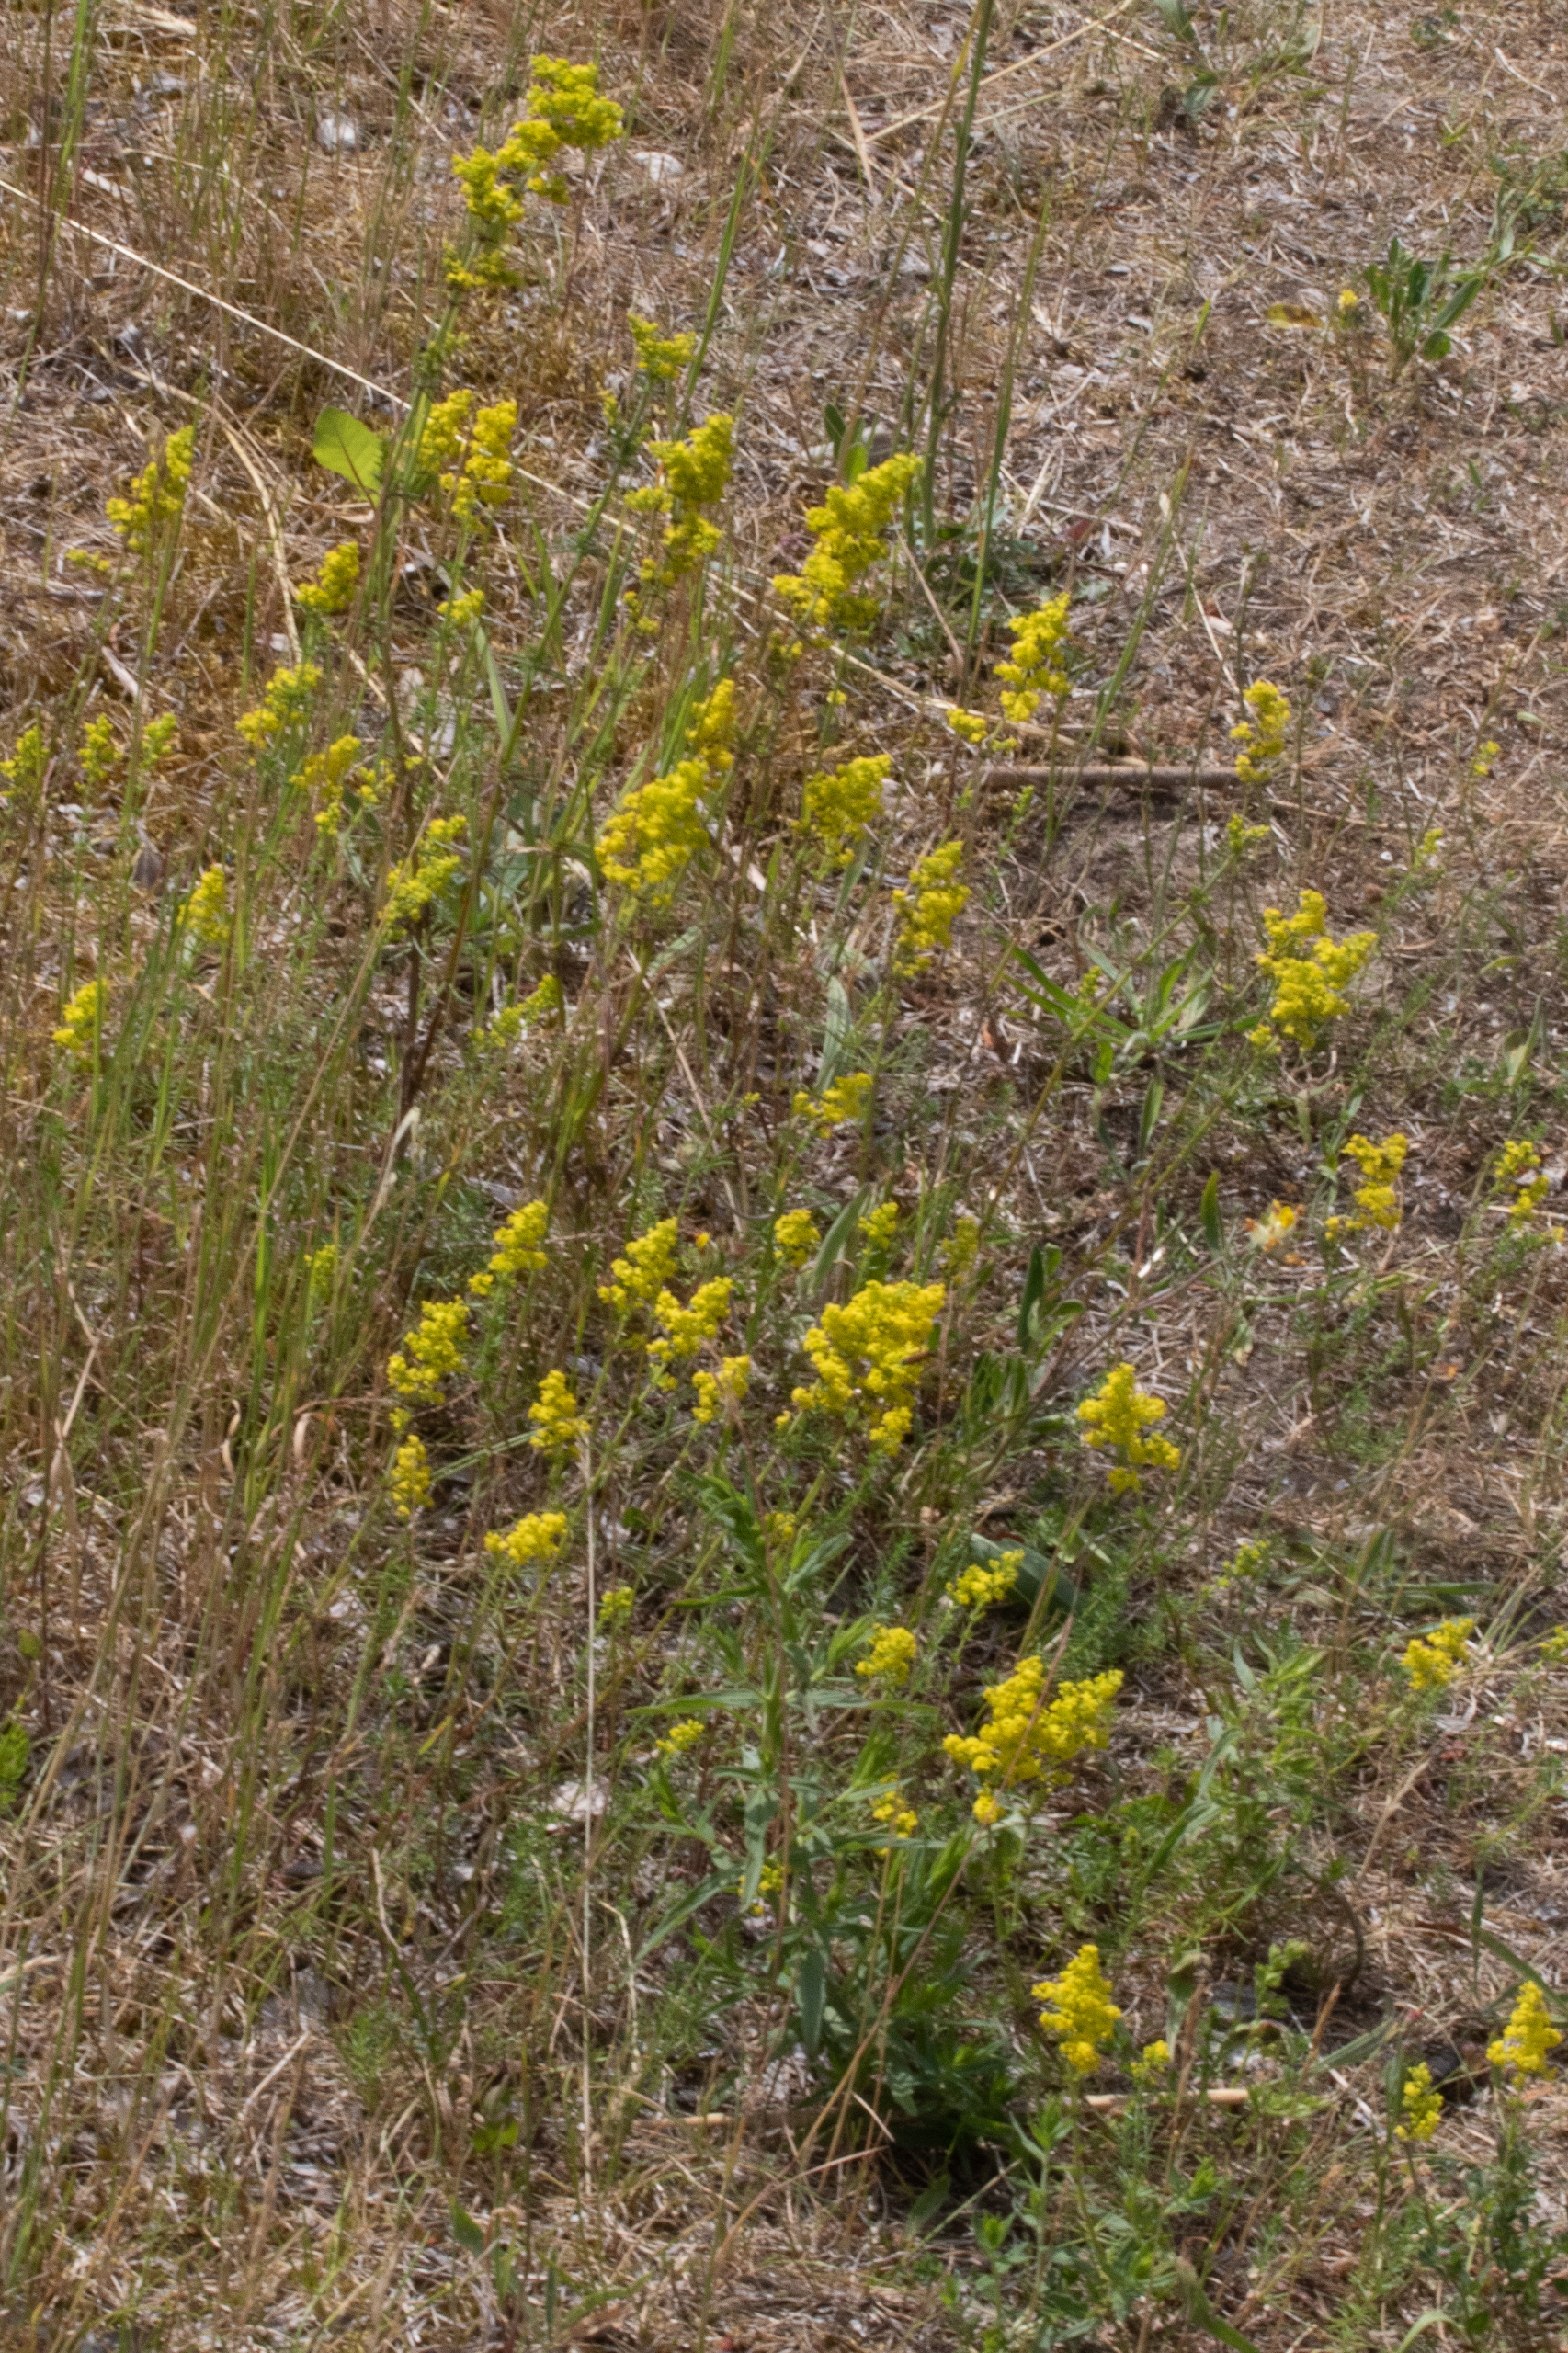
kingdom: Plantae
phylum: Tracheophyta
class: Magnoliopsida
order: Gentianales
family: Rubiaceae
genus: Galium
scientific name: Galium verum
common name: Gul snerre
